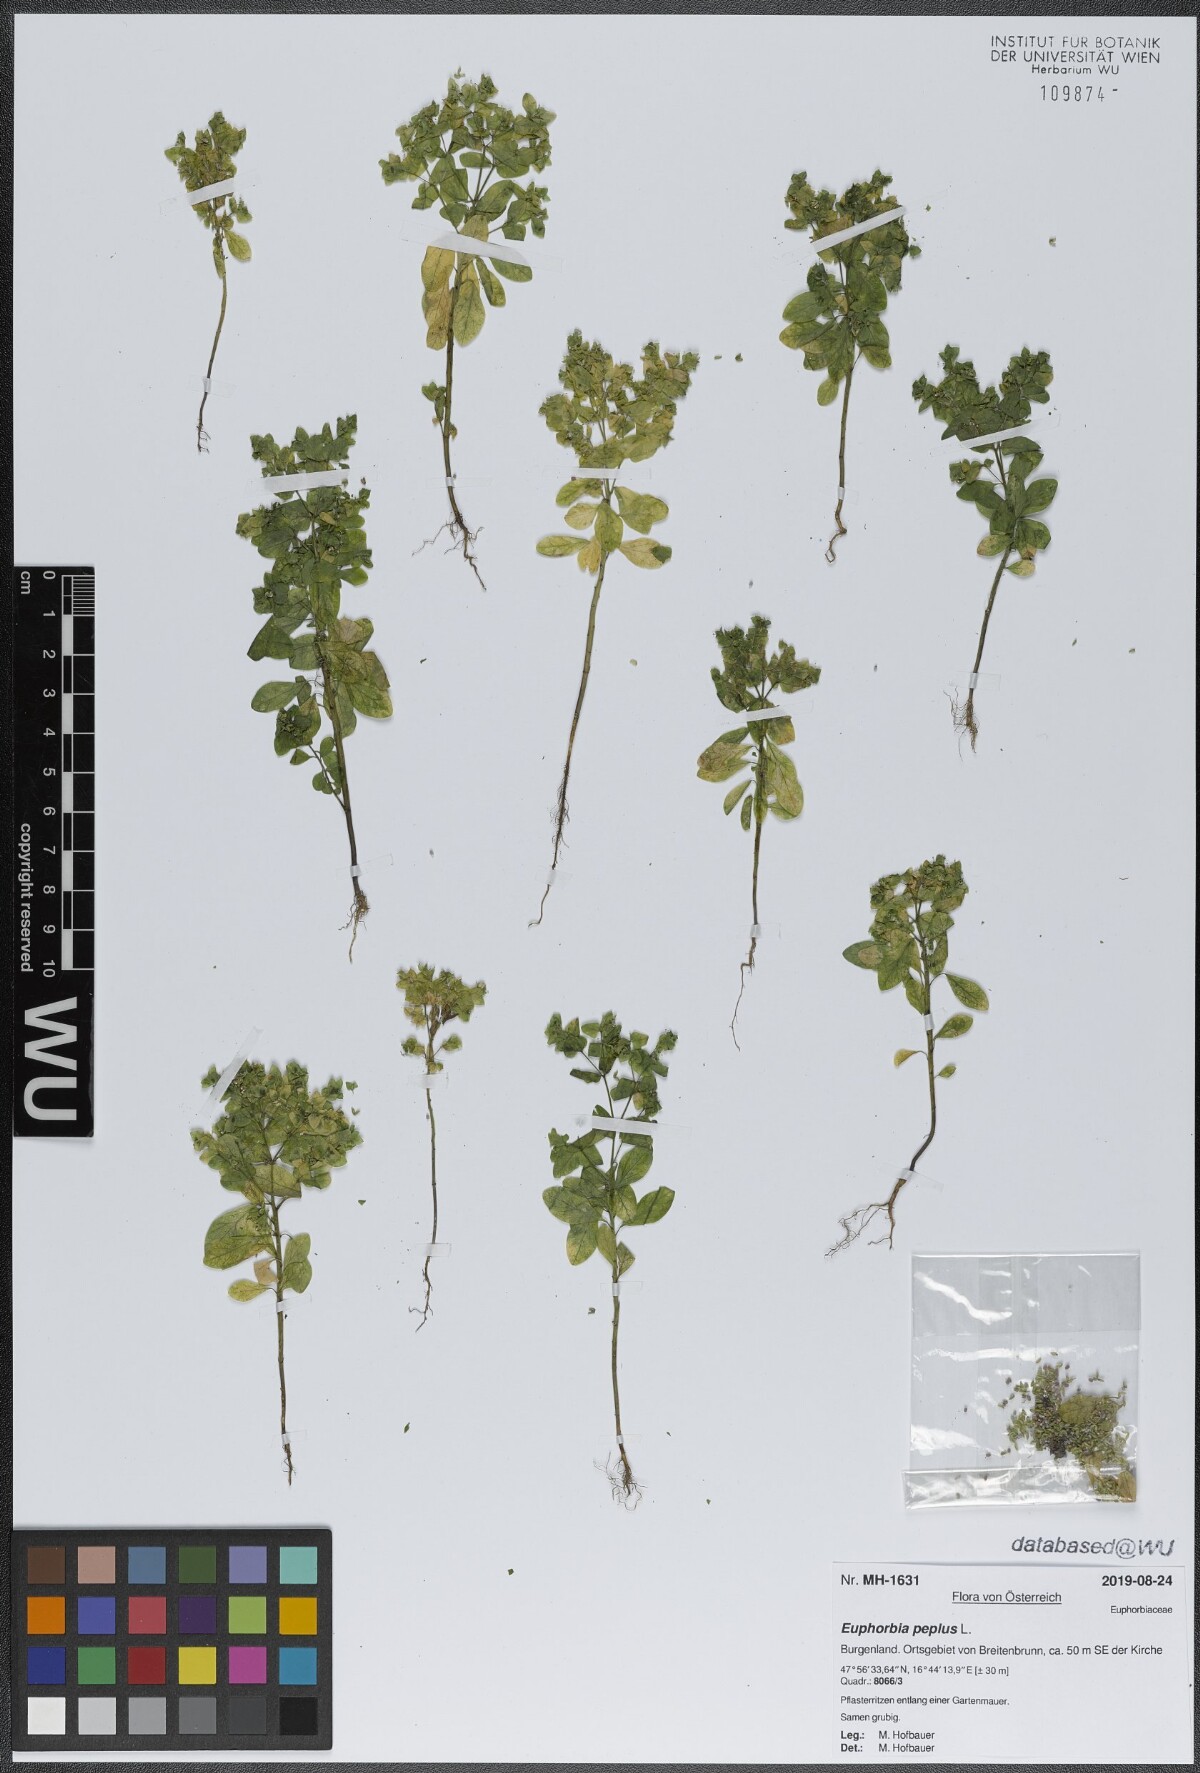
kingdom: Plantae
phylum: Tracheophyta
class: Magnoliopsida
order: Malpighiales
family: Euphorbiaceae
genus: Euphorbia
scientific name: Euphorbia peplus
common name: Petty spurge
